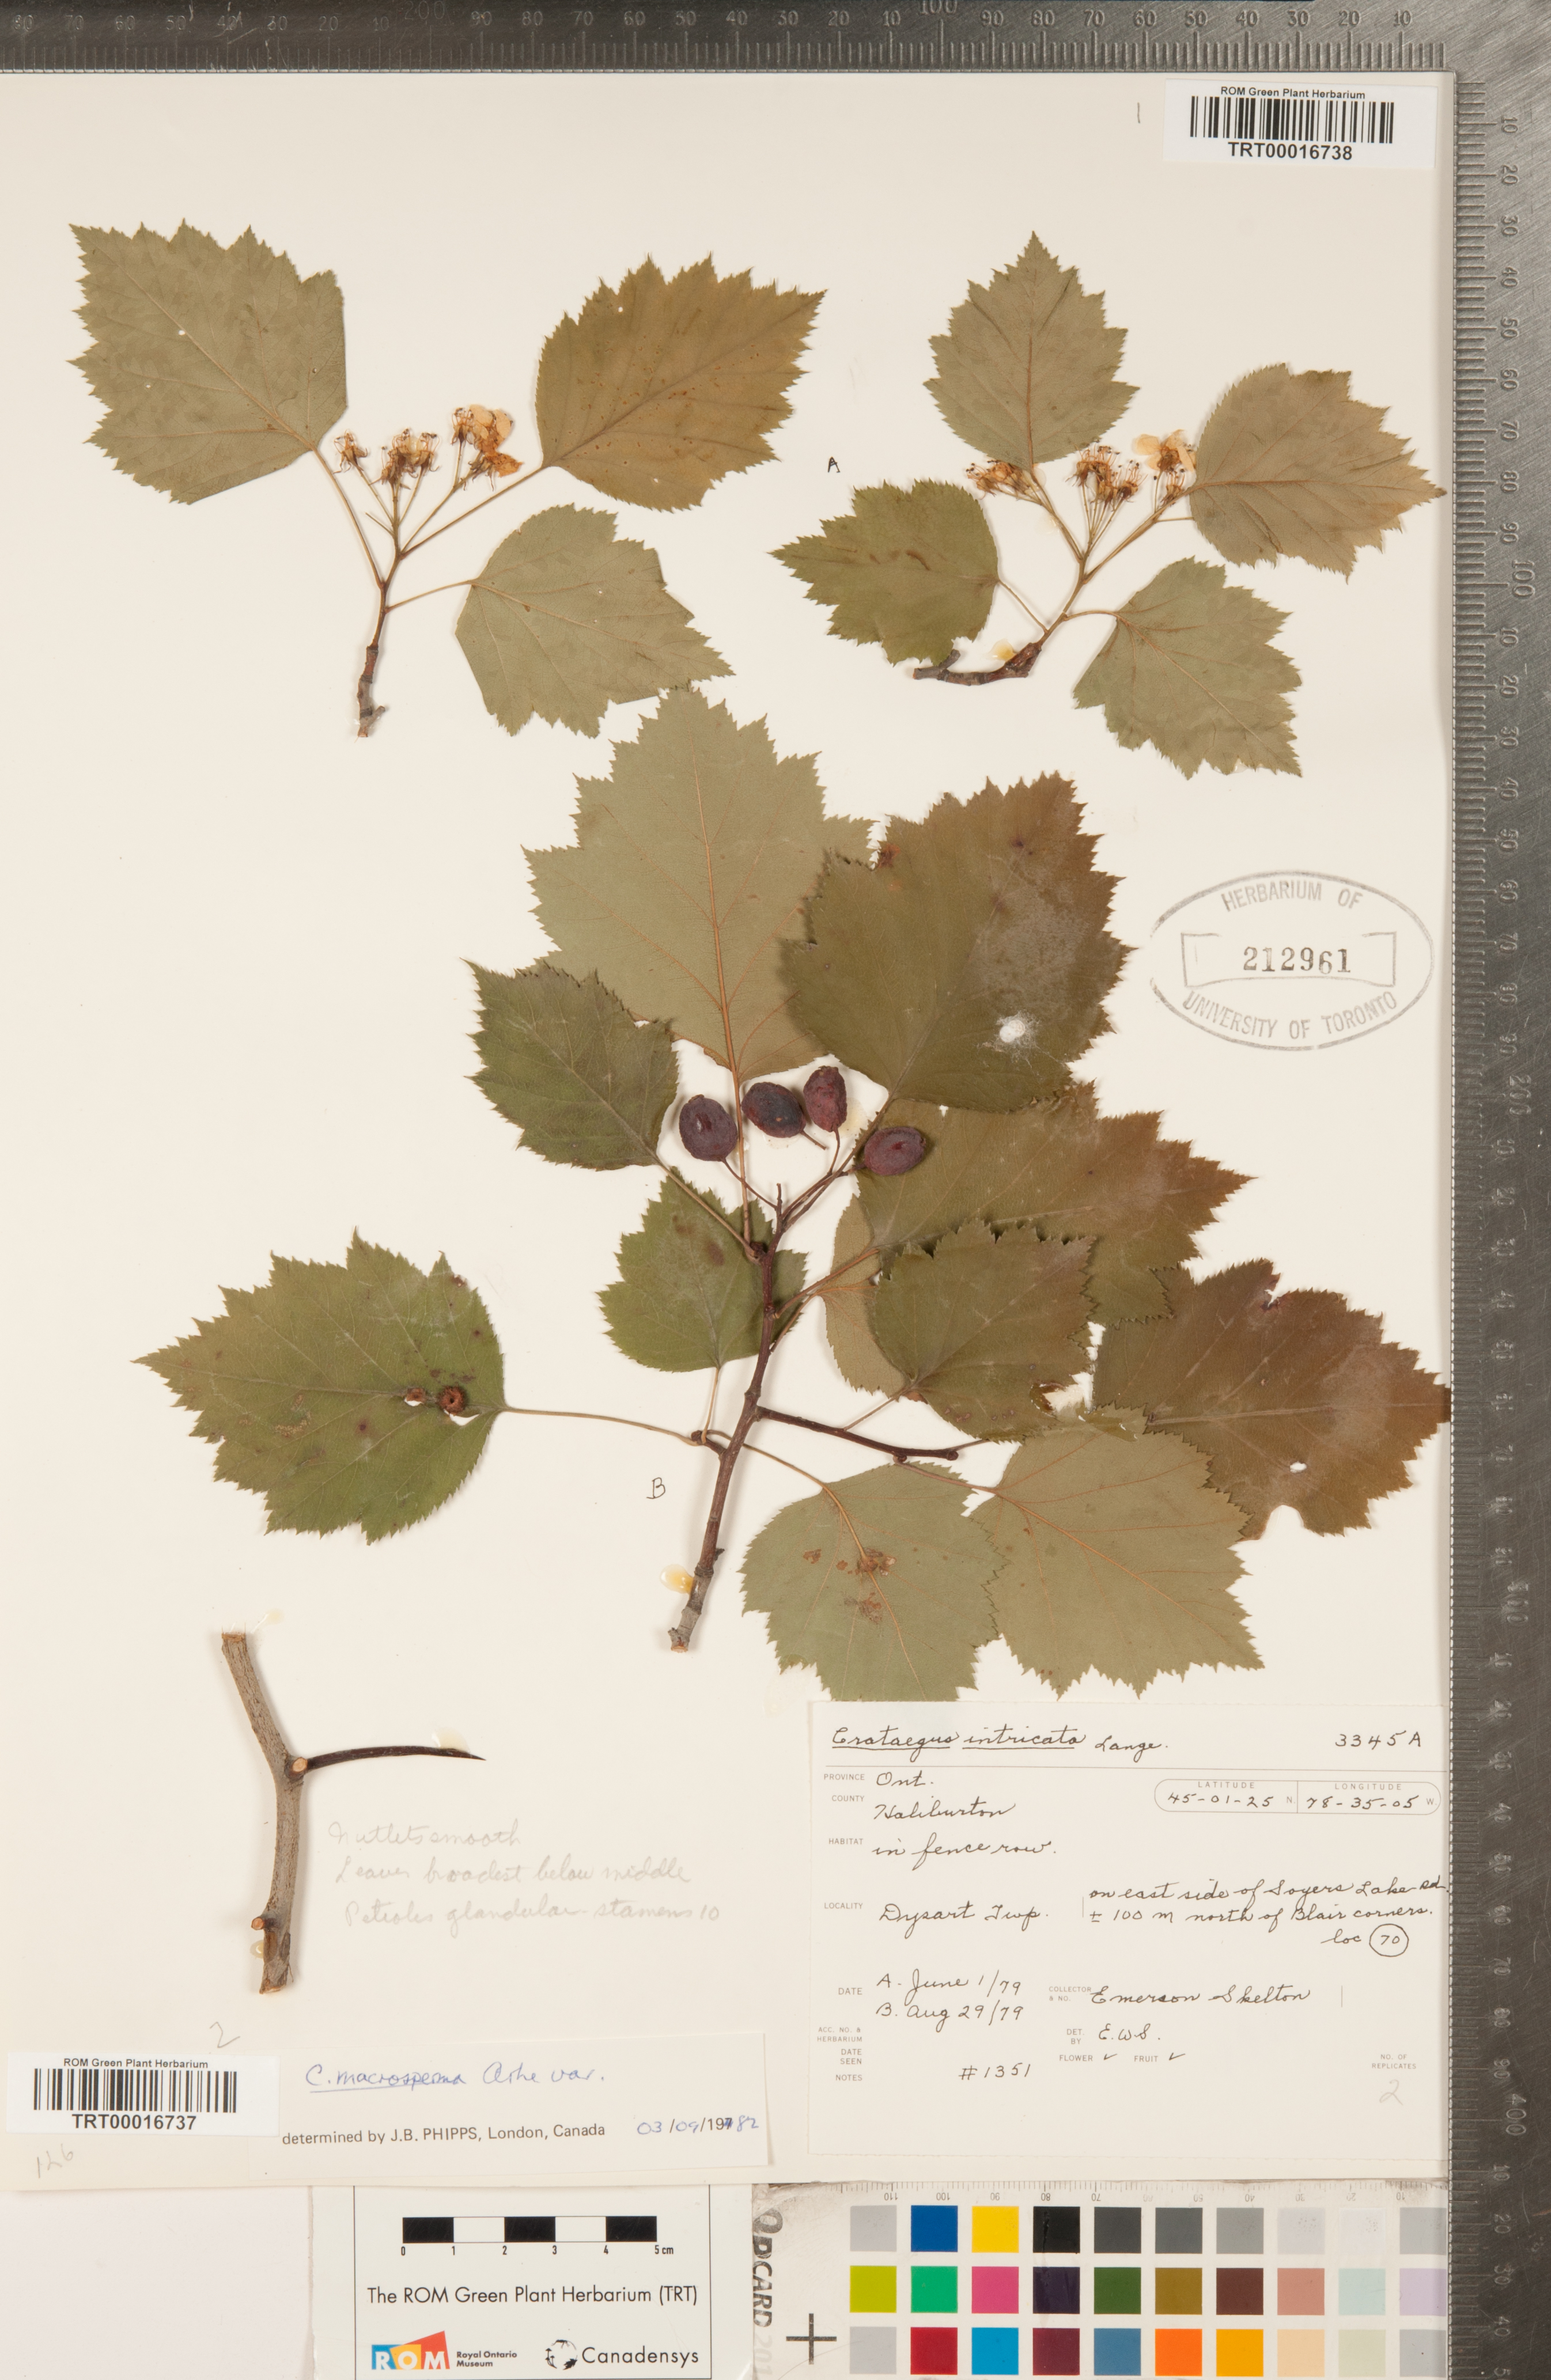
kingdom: Plantae
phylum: Tracheophyta
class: Magnoliopsida
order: Rosales
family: Rosaceae
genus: Crataegus
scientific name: Crataegus macrosperma
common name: Variable hawthorn
